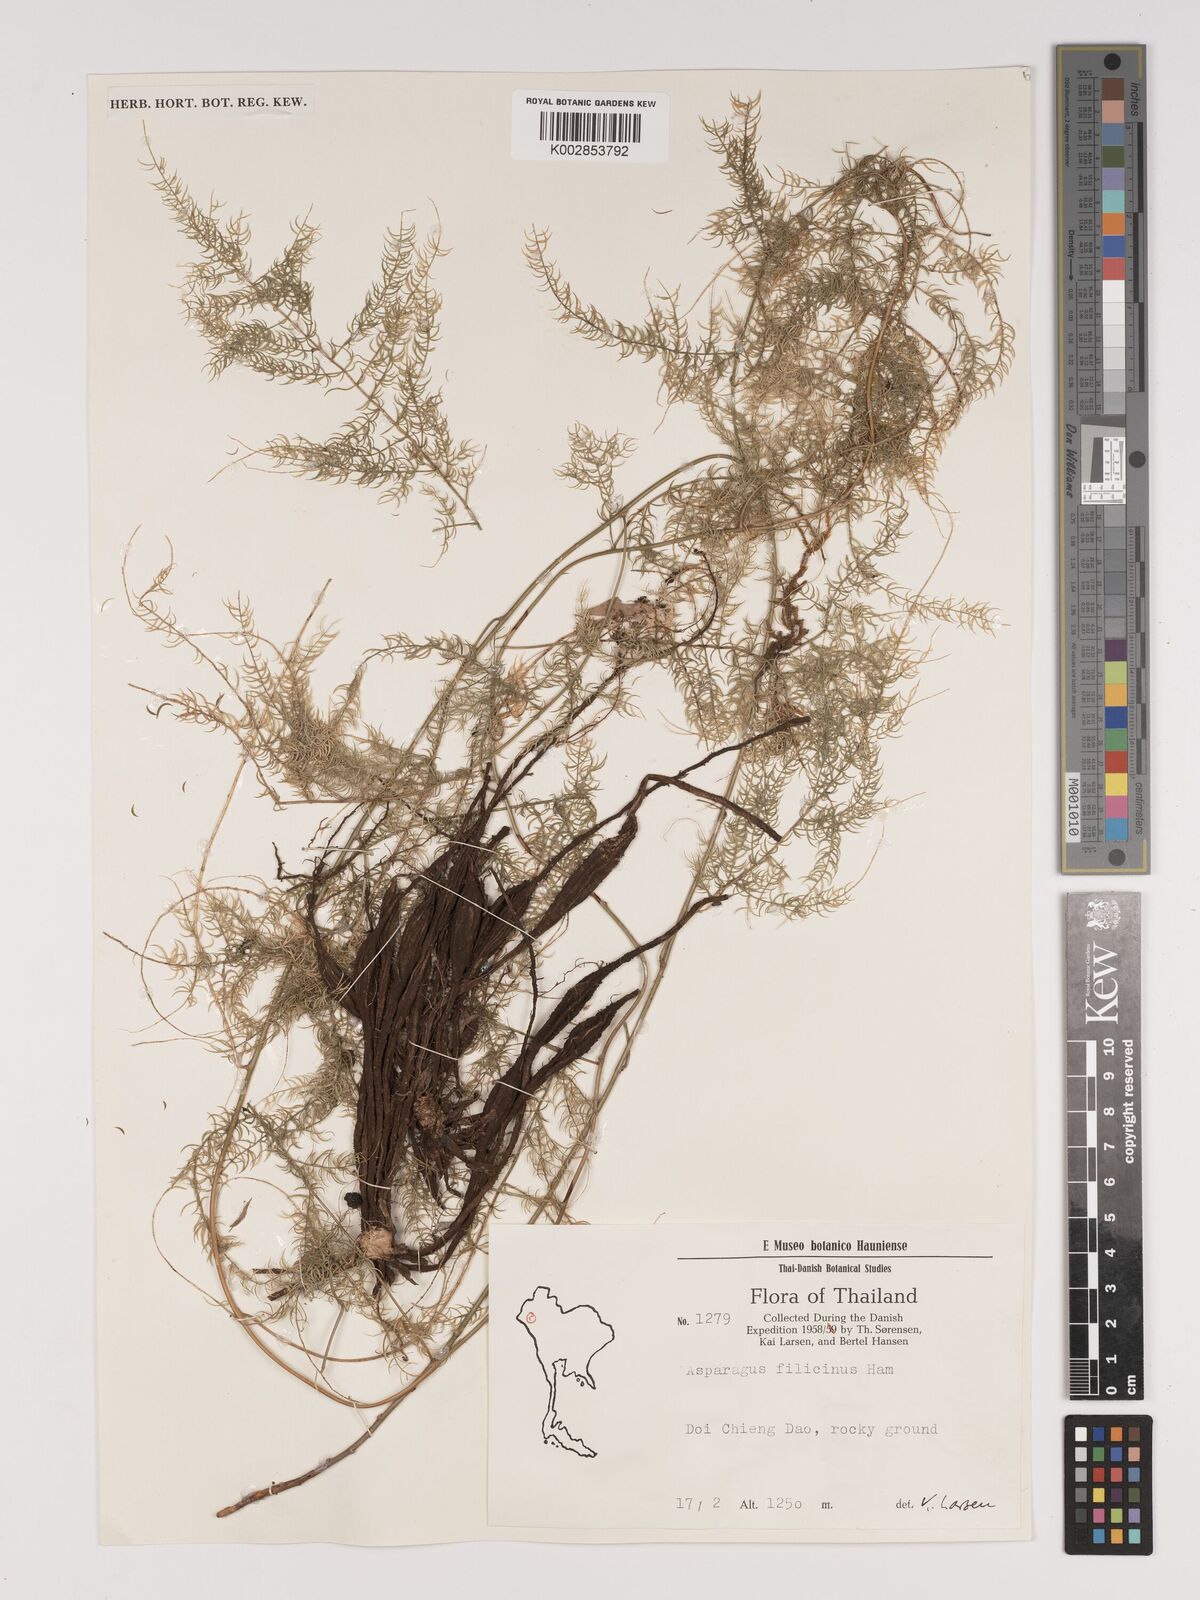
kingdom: Plantae
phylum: Tracheophyta
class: Liliopsida
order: Asparagales
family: Asparagaceae
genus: Asparagus
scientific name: Asparagus filicinus
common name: Fern asparagus
